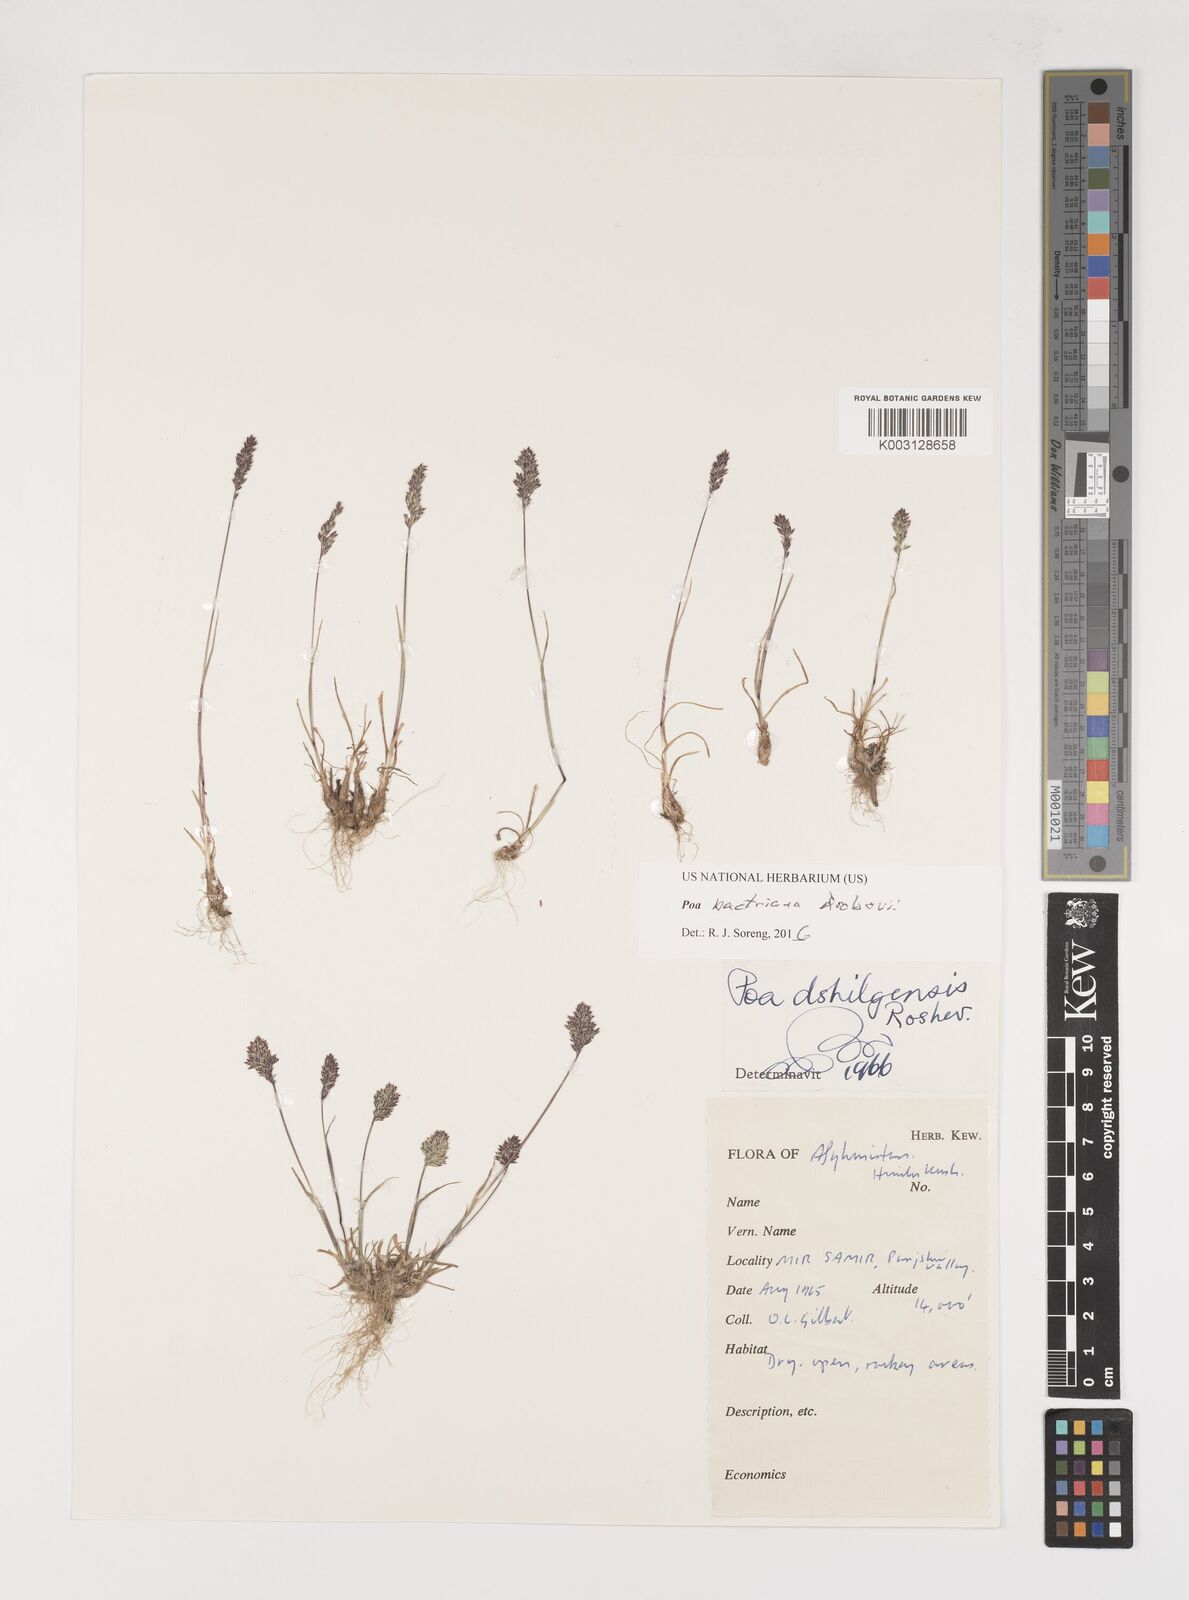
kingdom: Plantae
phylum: Tracheophyta
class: Liliopsida
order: Poales
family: Poaceae
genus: Poa
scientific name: Poa bactriana
